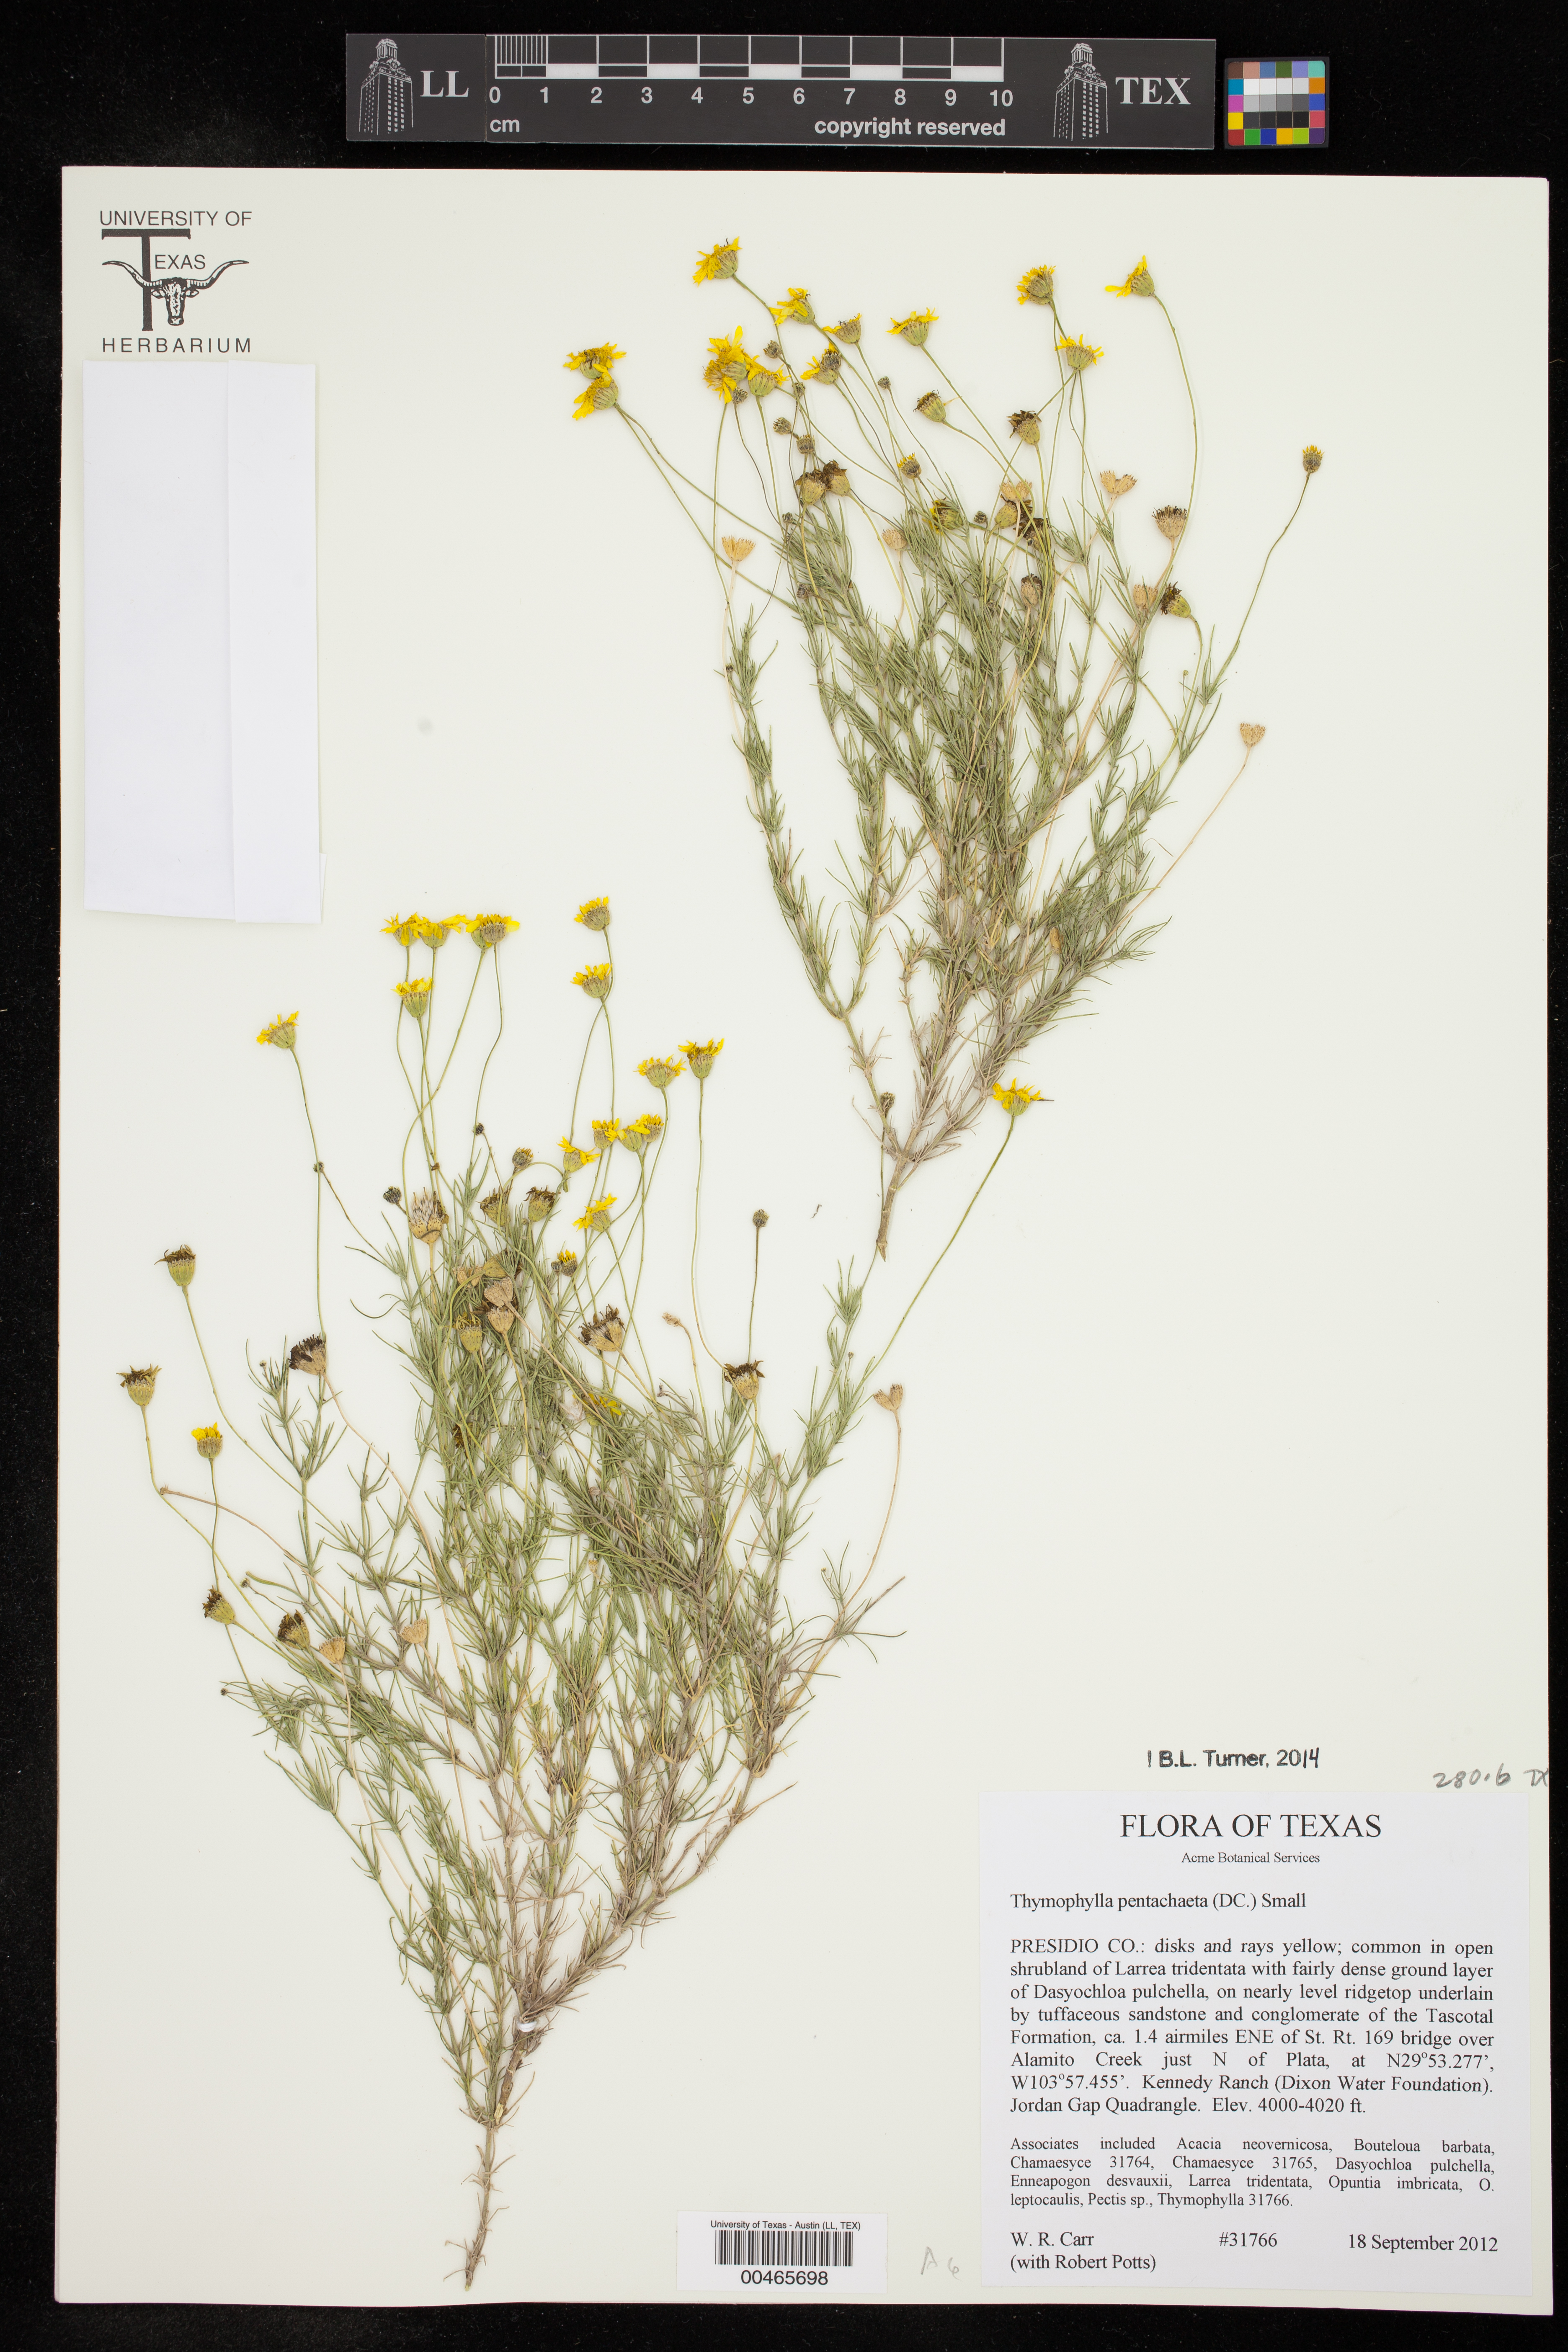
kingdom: Plantae
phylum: Tracheophyta
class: Magnoliopsida
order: Asterales
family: Asteraceae
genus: Thymophylla
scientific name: Thymophylla pentachaeta
